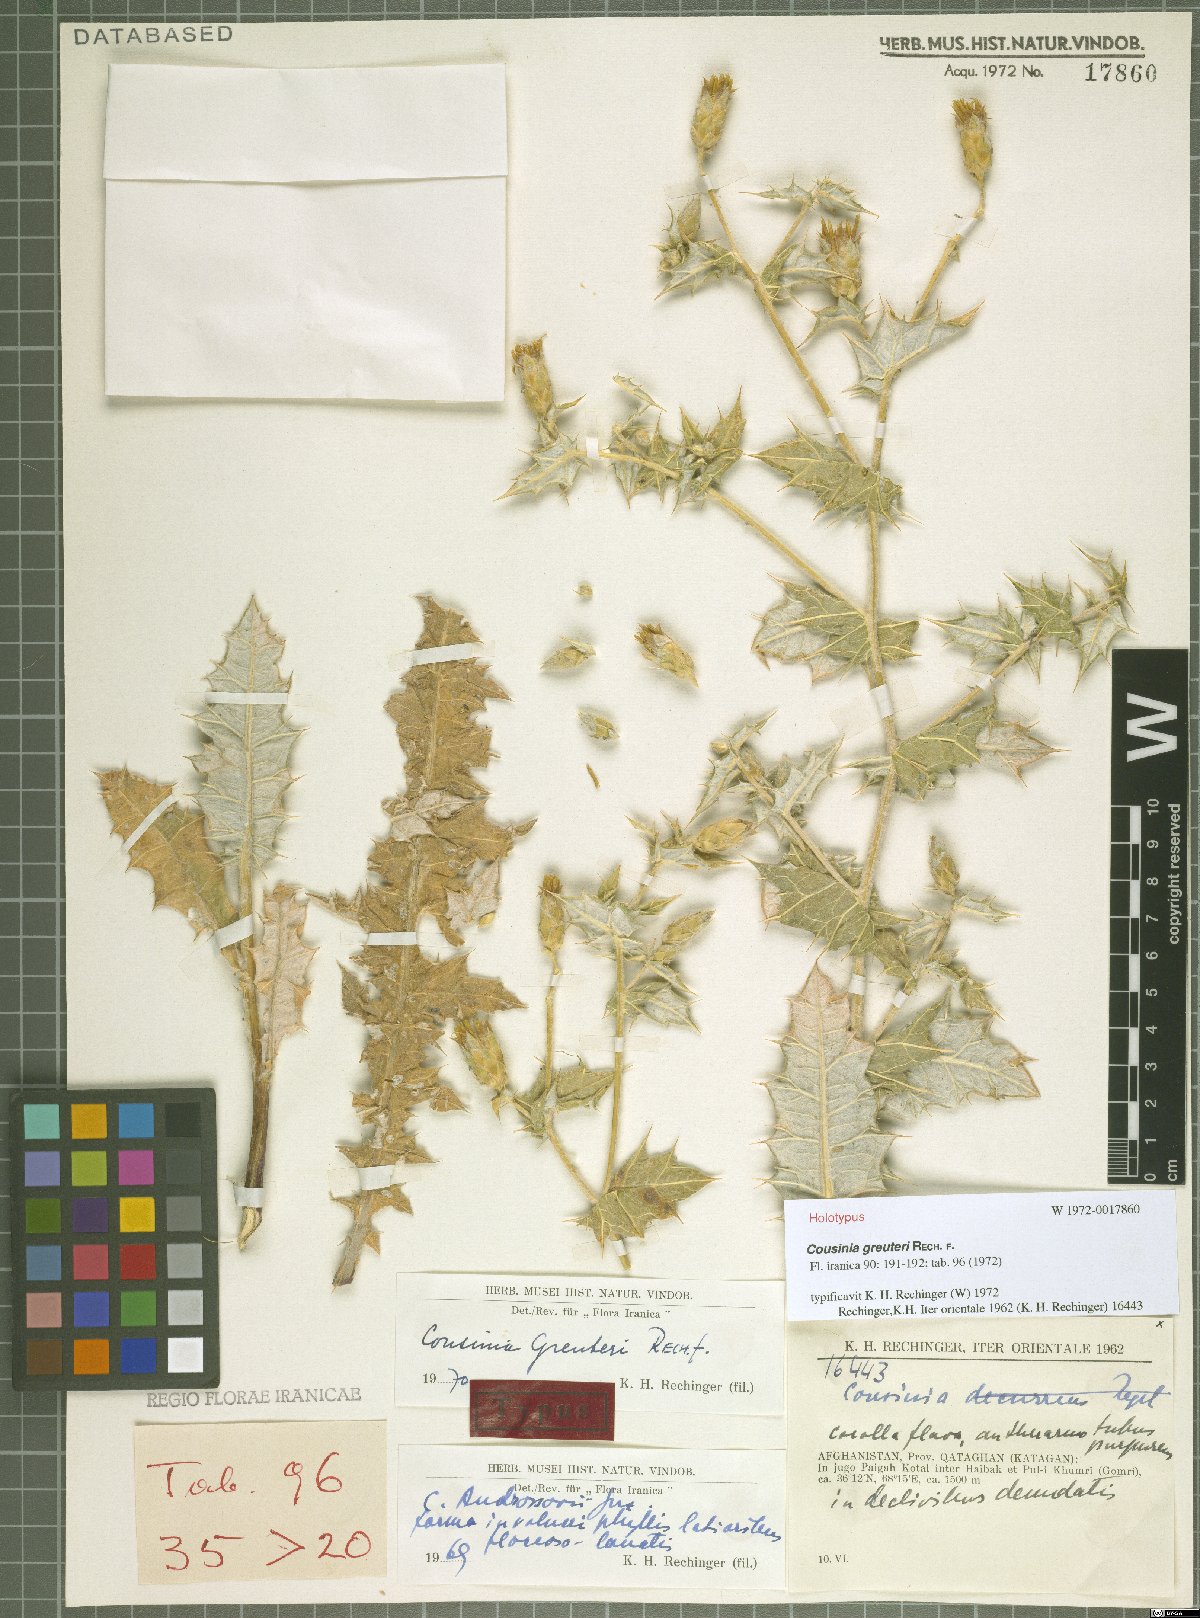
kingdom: Plantae
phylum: Tracheophyta
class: Magnoliopsida
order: Asterales
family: Asteraceae
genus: Cousinia
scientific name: Cousinia greuteri
